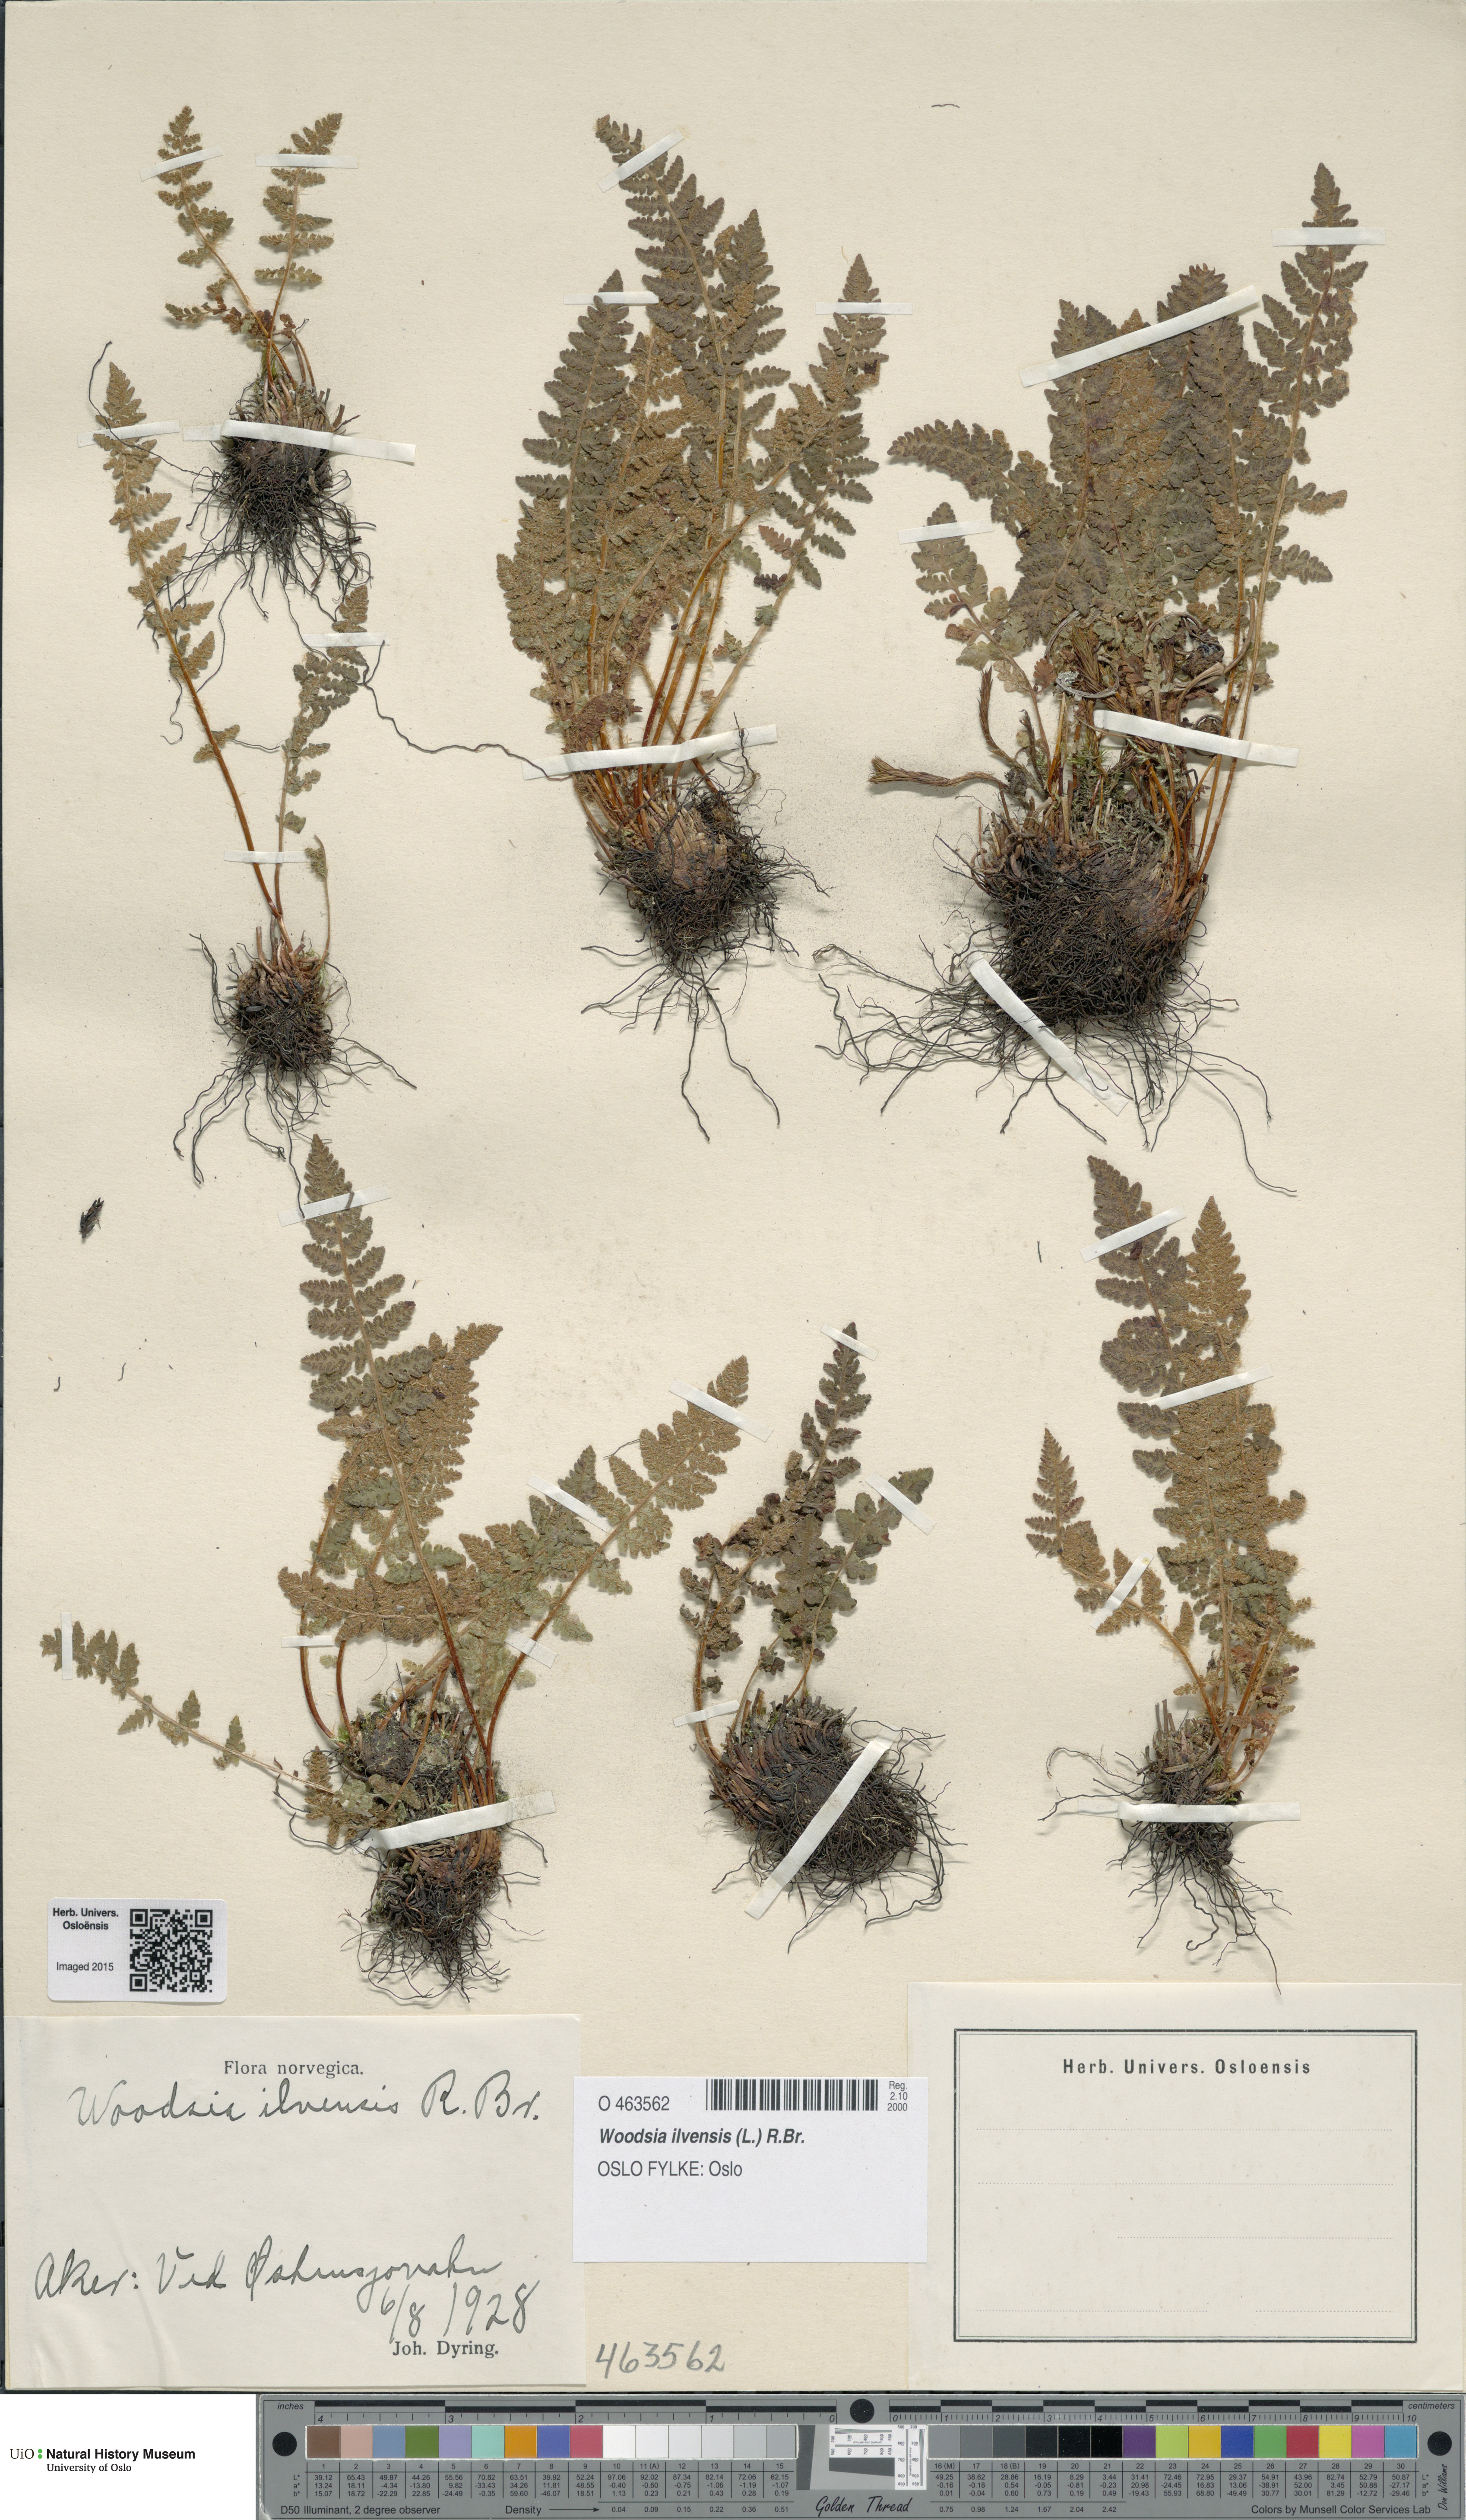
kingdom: Plantae
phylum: Tracheophyta
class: Polypodiopsida
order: Polypodiales
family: Woodsiaceae
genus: Woodsia
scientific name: Woodsia ilvensis
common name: Fragrant woodsia
